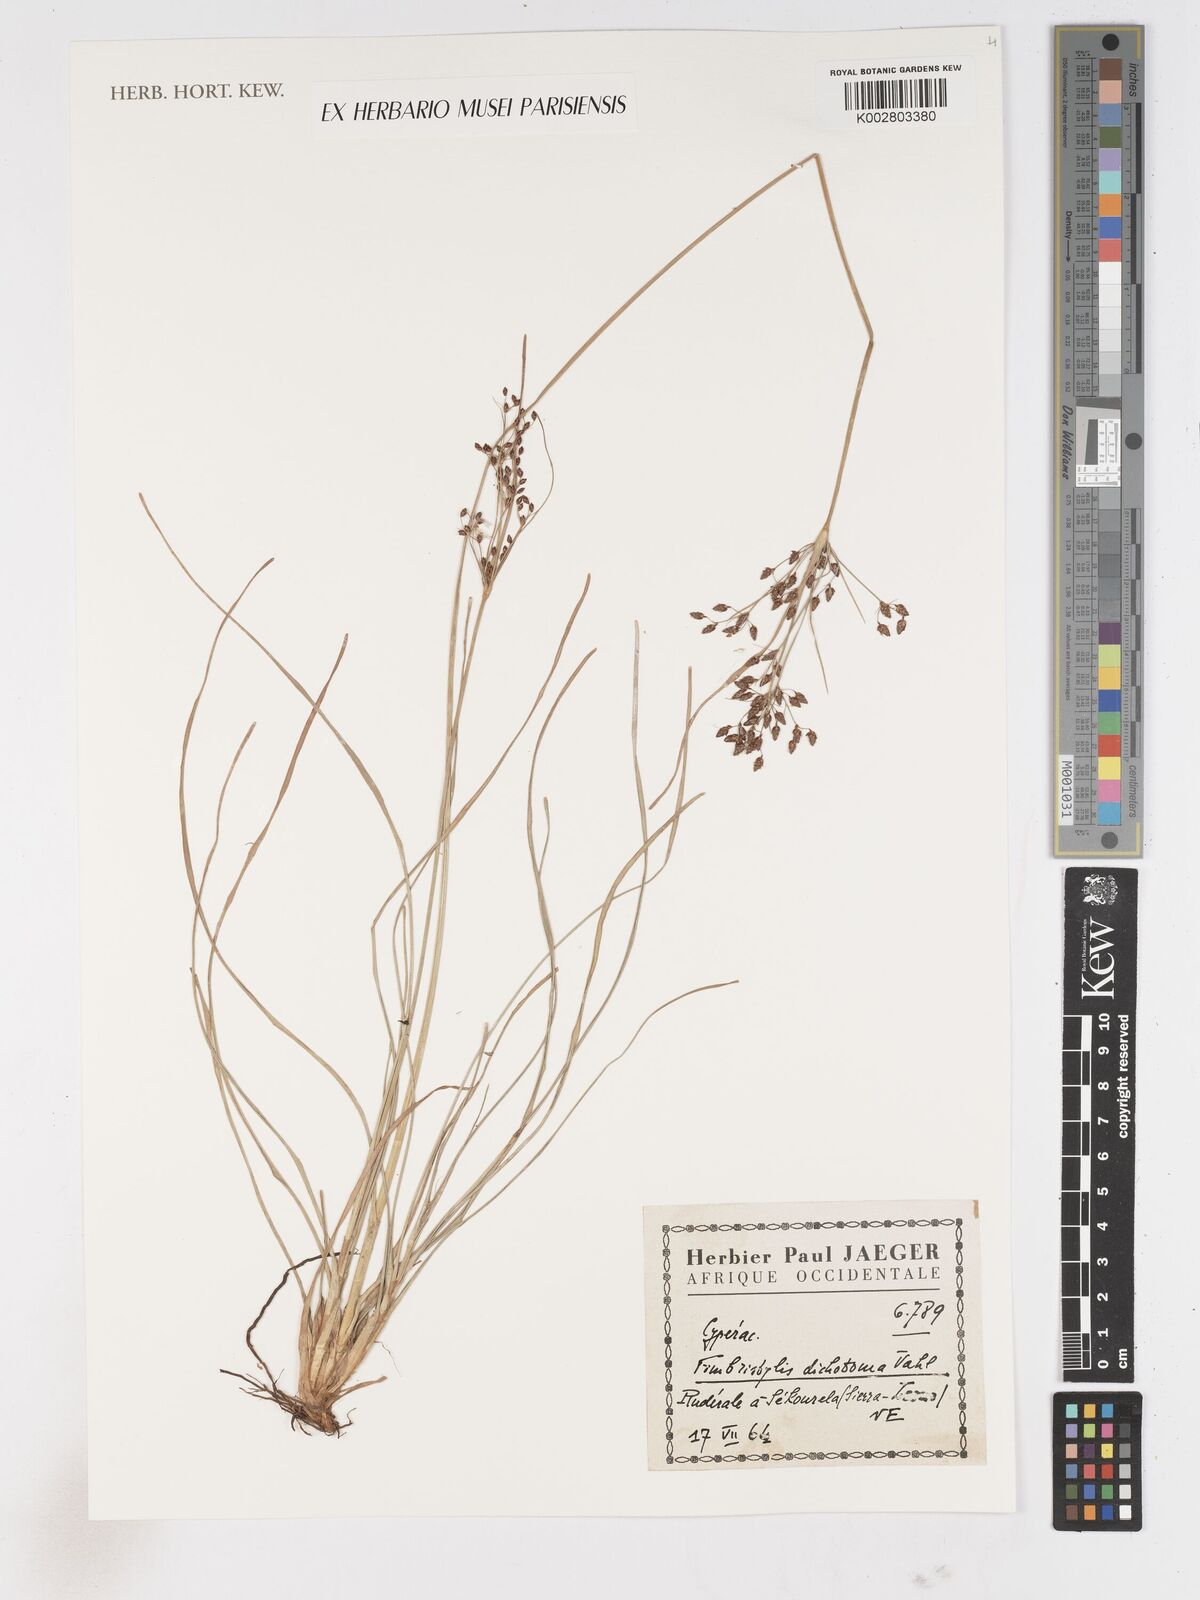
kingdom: Plantae
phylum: Tracheophyta
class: Liliopsida
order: Poales
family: Cyperaceae
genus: Fimbristylis
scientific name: Fimbristylis dichotoma
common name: Forked fimbry
